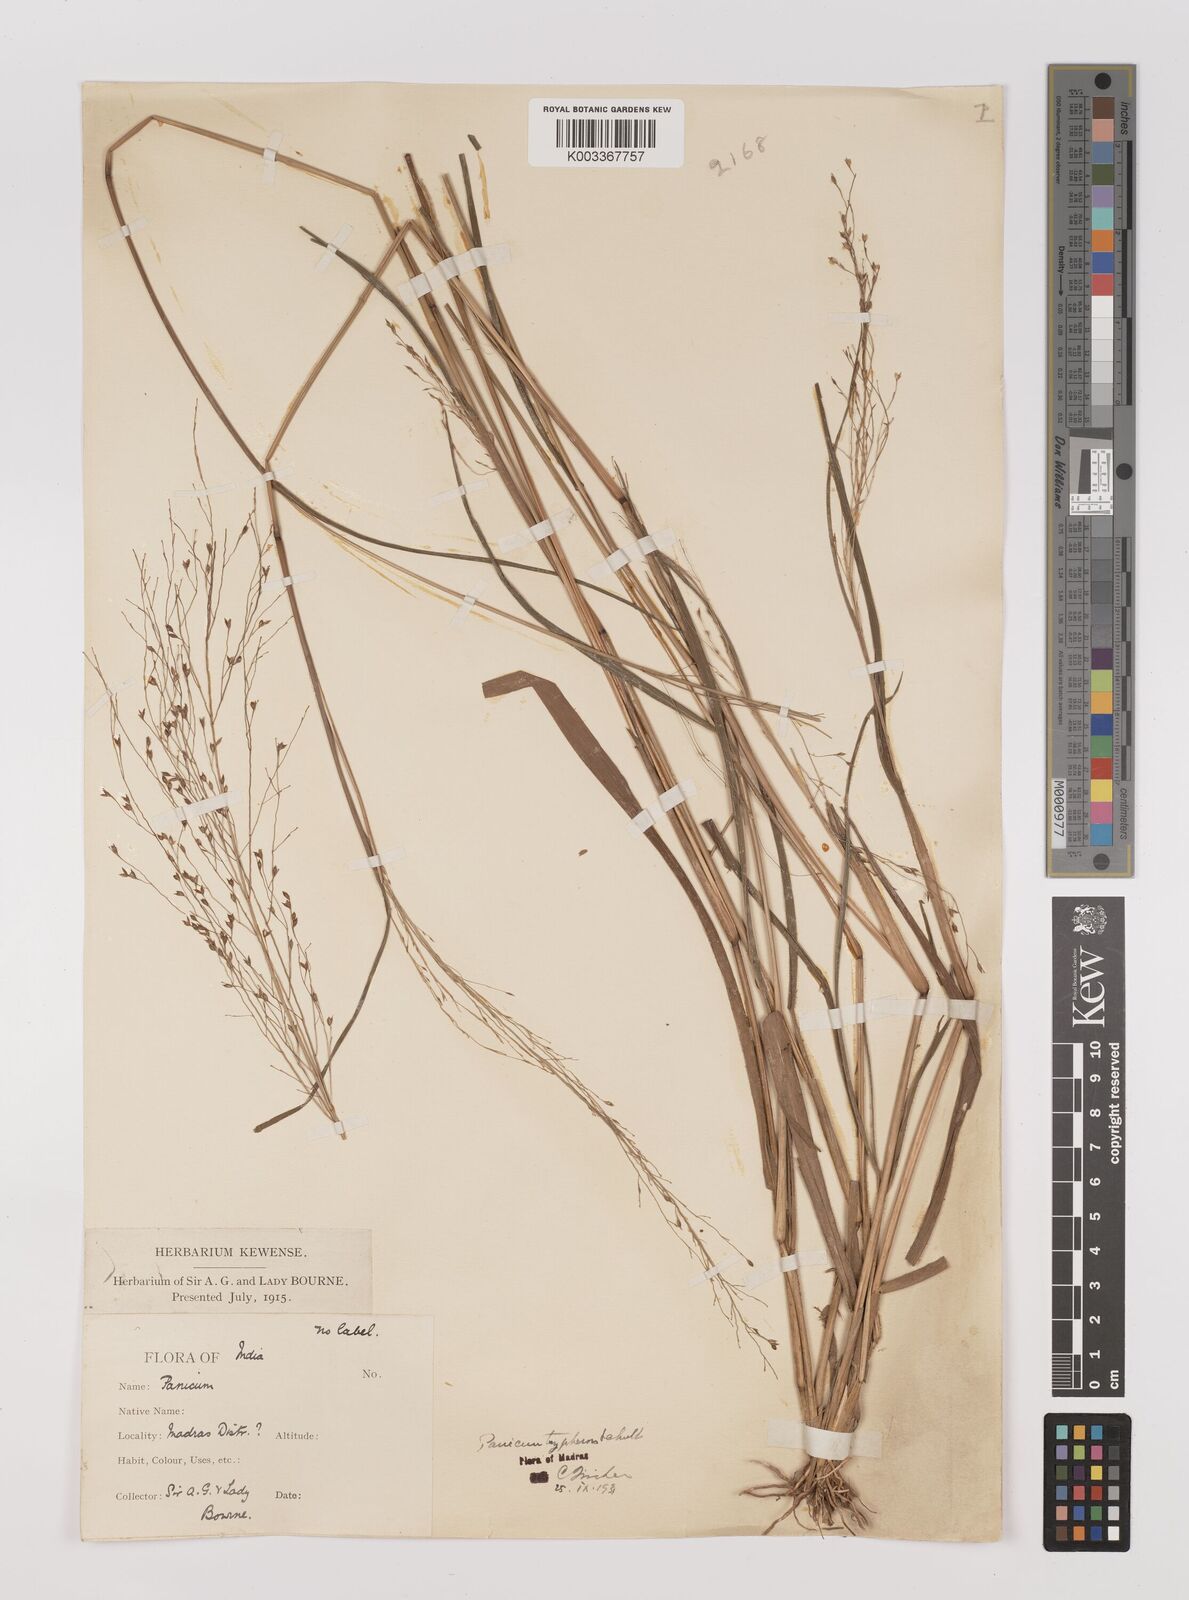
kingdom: Plantae
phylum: Tracheophyta
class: Liliopsida
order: Poales
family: Poaceae
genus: Panicum
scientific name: Panicum curviflorum
